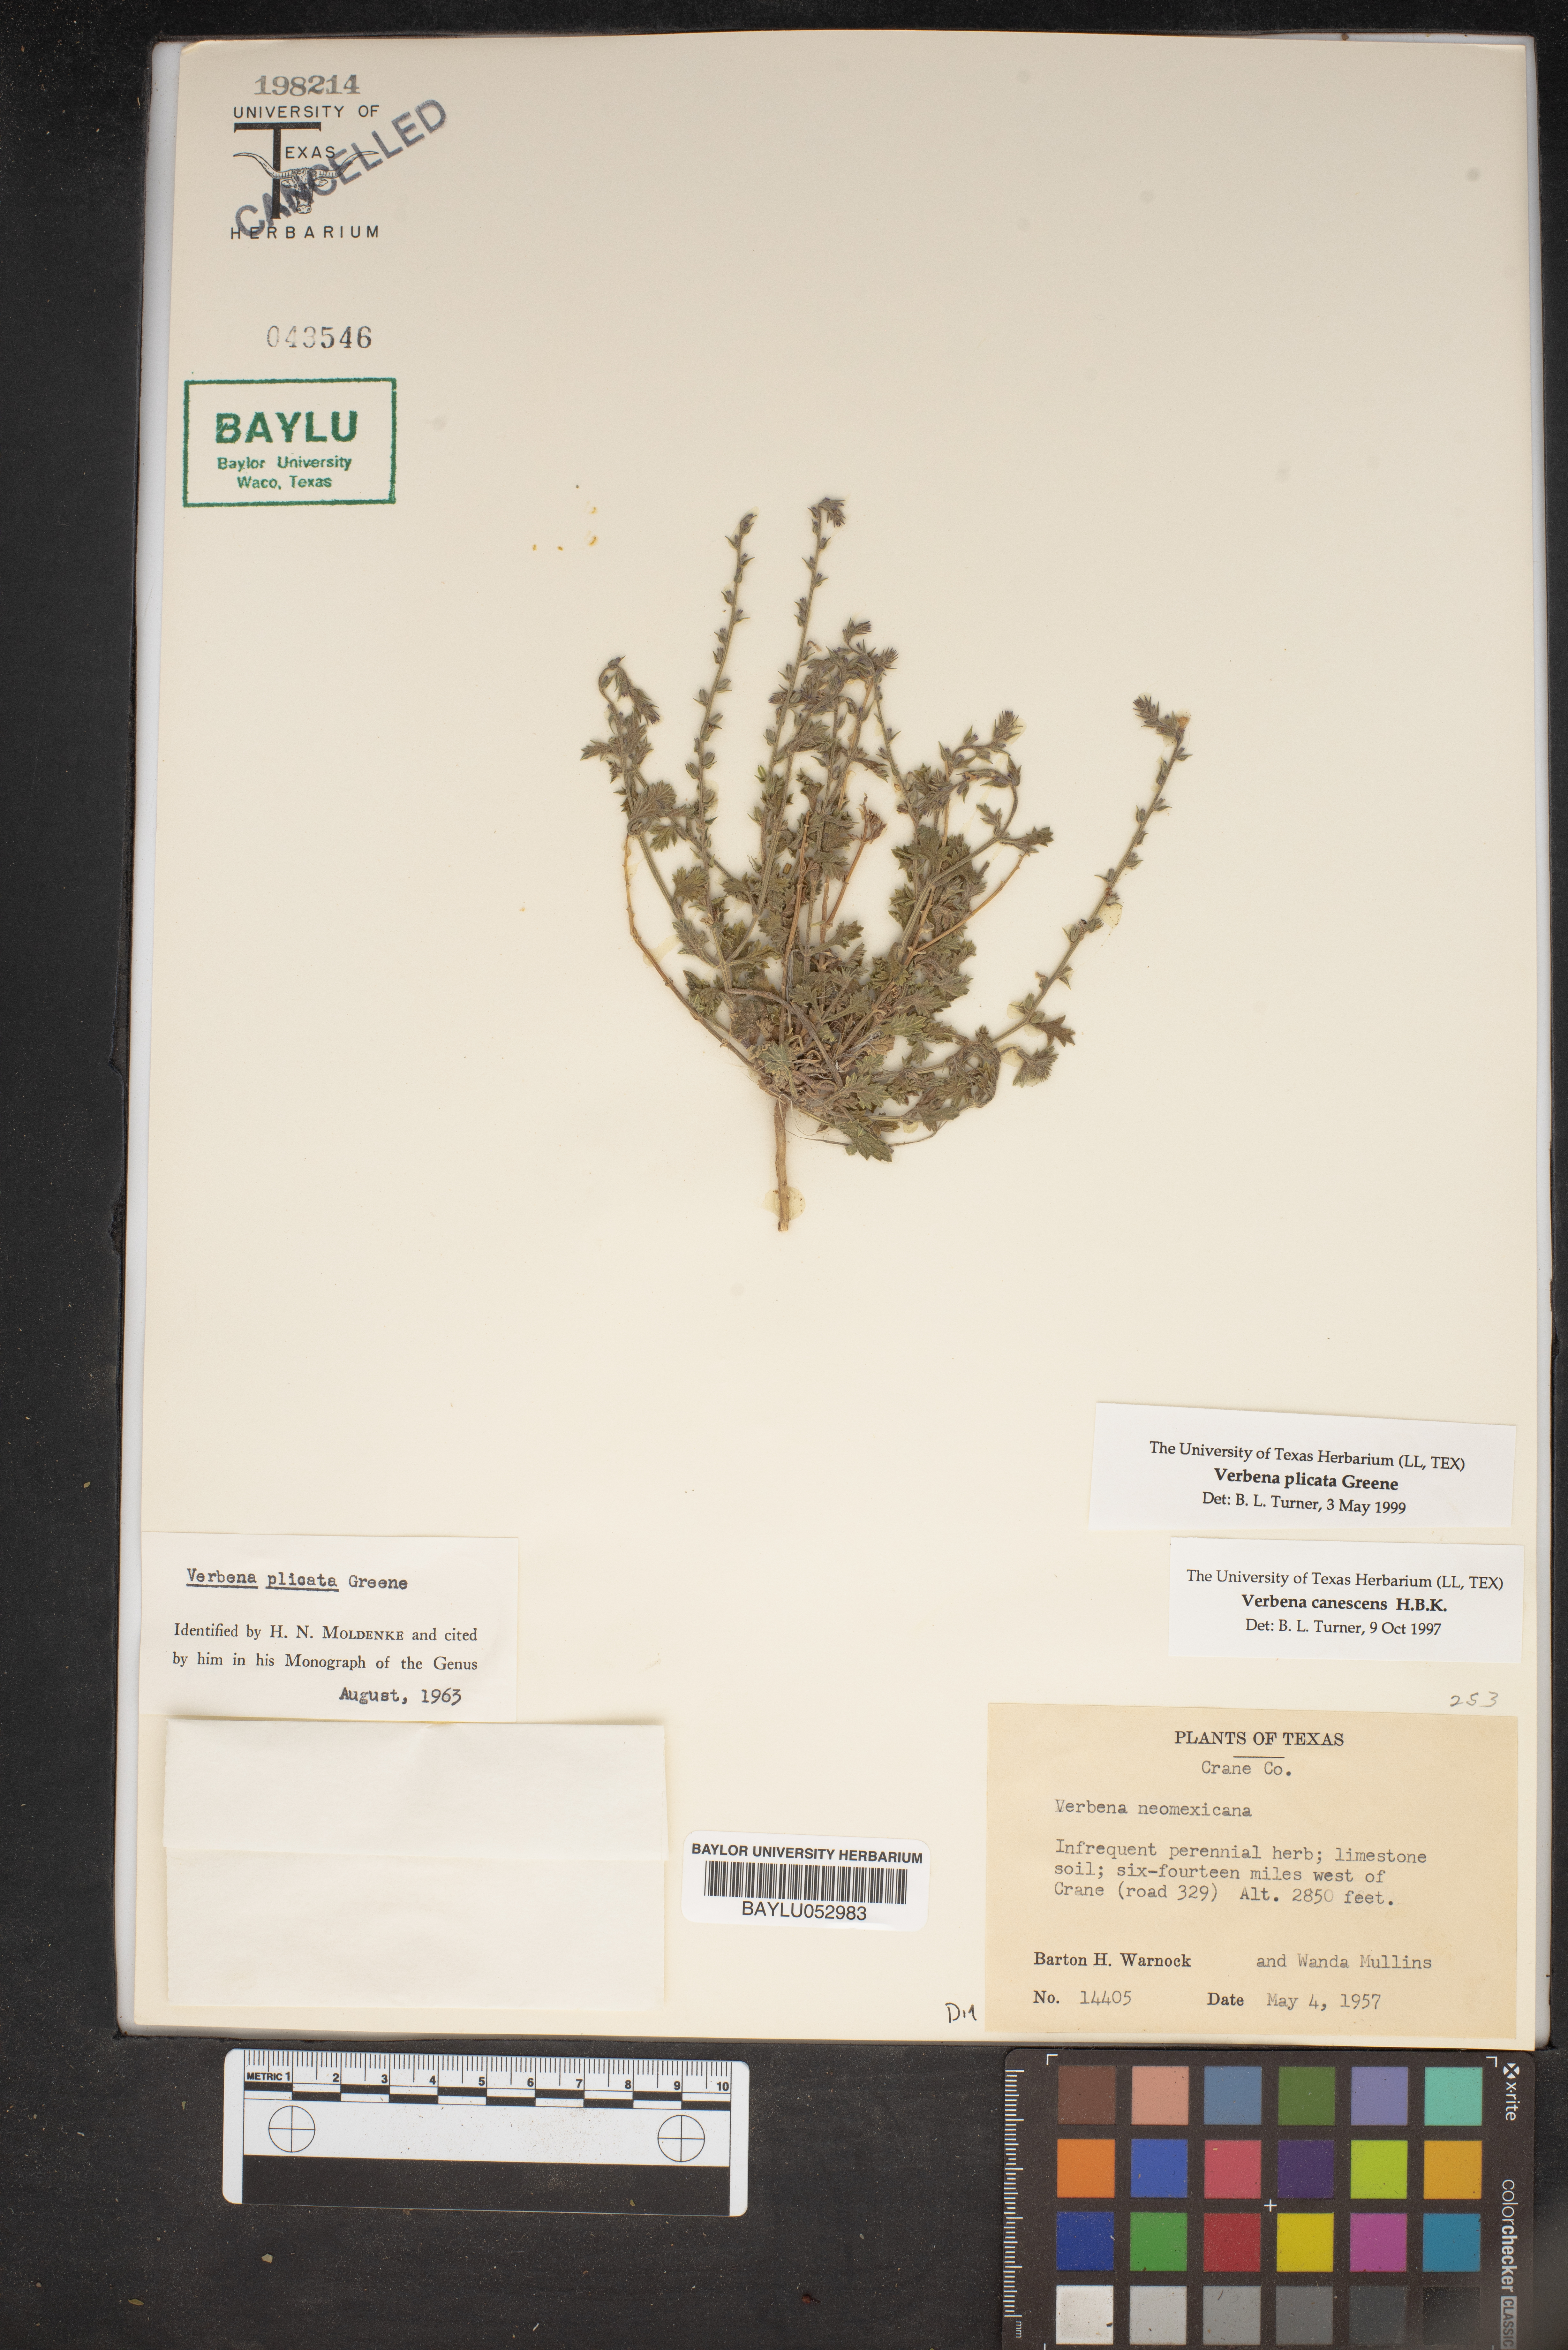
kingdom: Plantae
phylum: Tracheophyta
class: Magnoliopsida
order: Lamiales
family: Verbenaceae
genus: Verbena
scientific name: Verbena plicata
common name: Fan-leaf vervain
